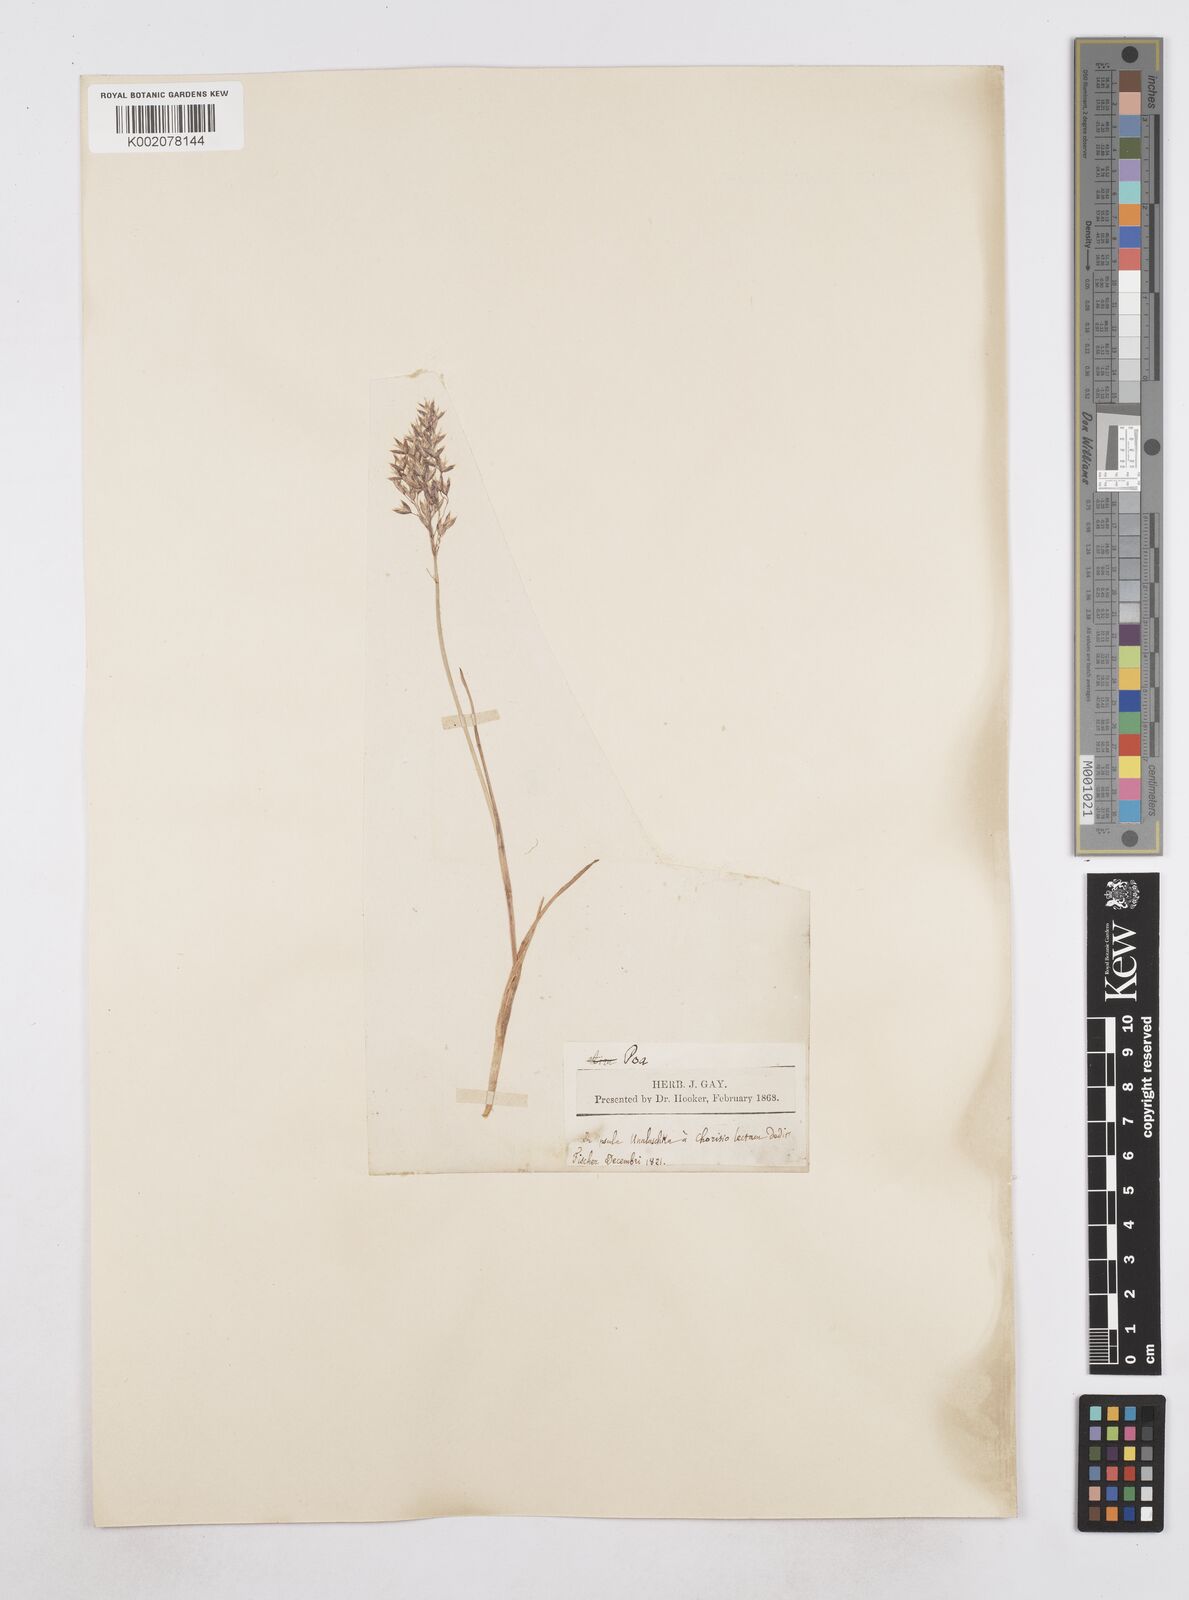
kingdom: Plantae
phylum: Tracheophyta
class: Liliopsida
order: Poales
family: Poaceae
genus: Poa
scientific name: Poa
